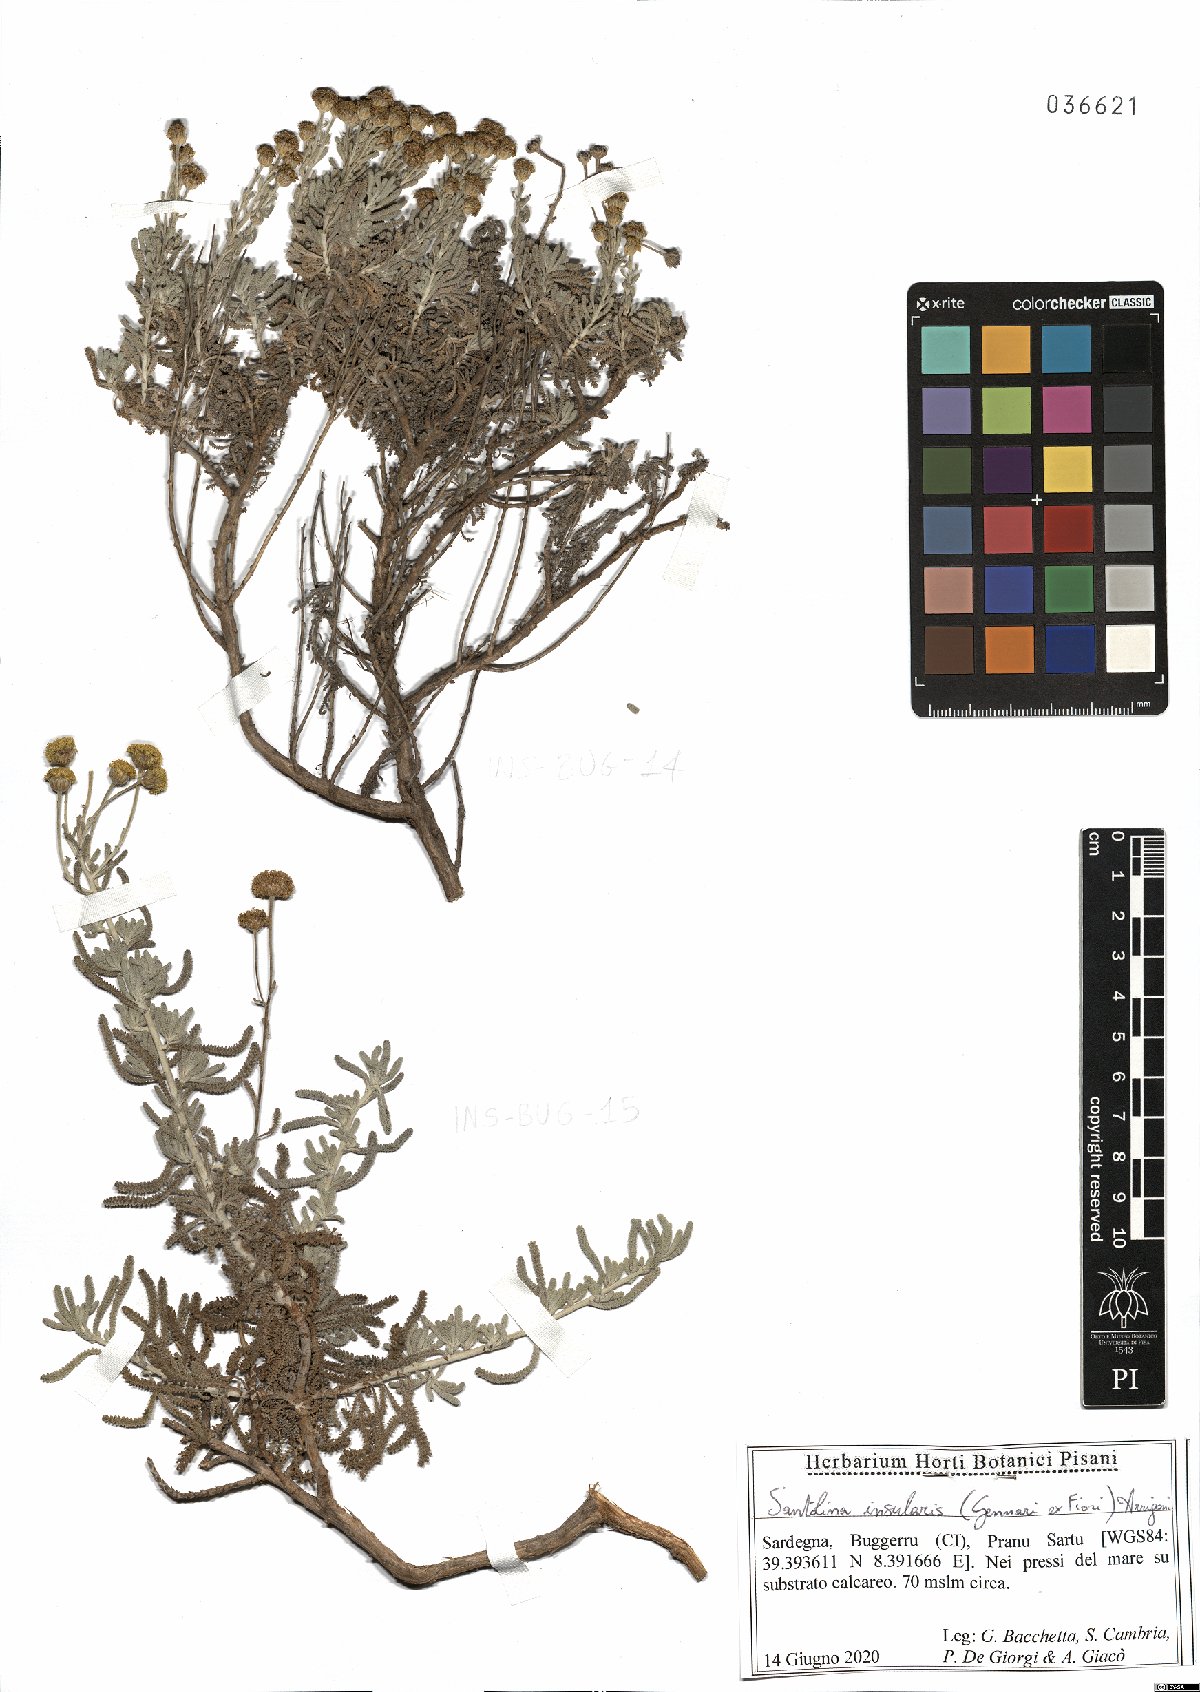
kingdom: Plantae
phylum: Tracheophyta
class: Magnoliopsida
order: Asterales
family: Asteraceae
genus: Santolina
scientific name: Santolina insularis
